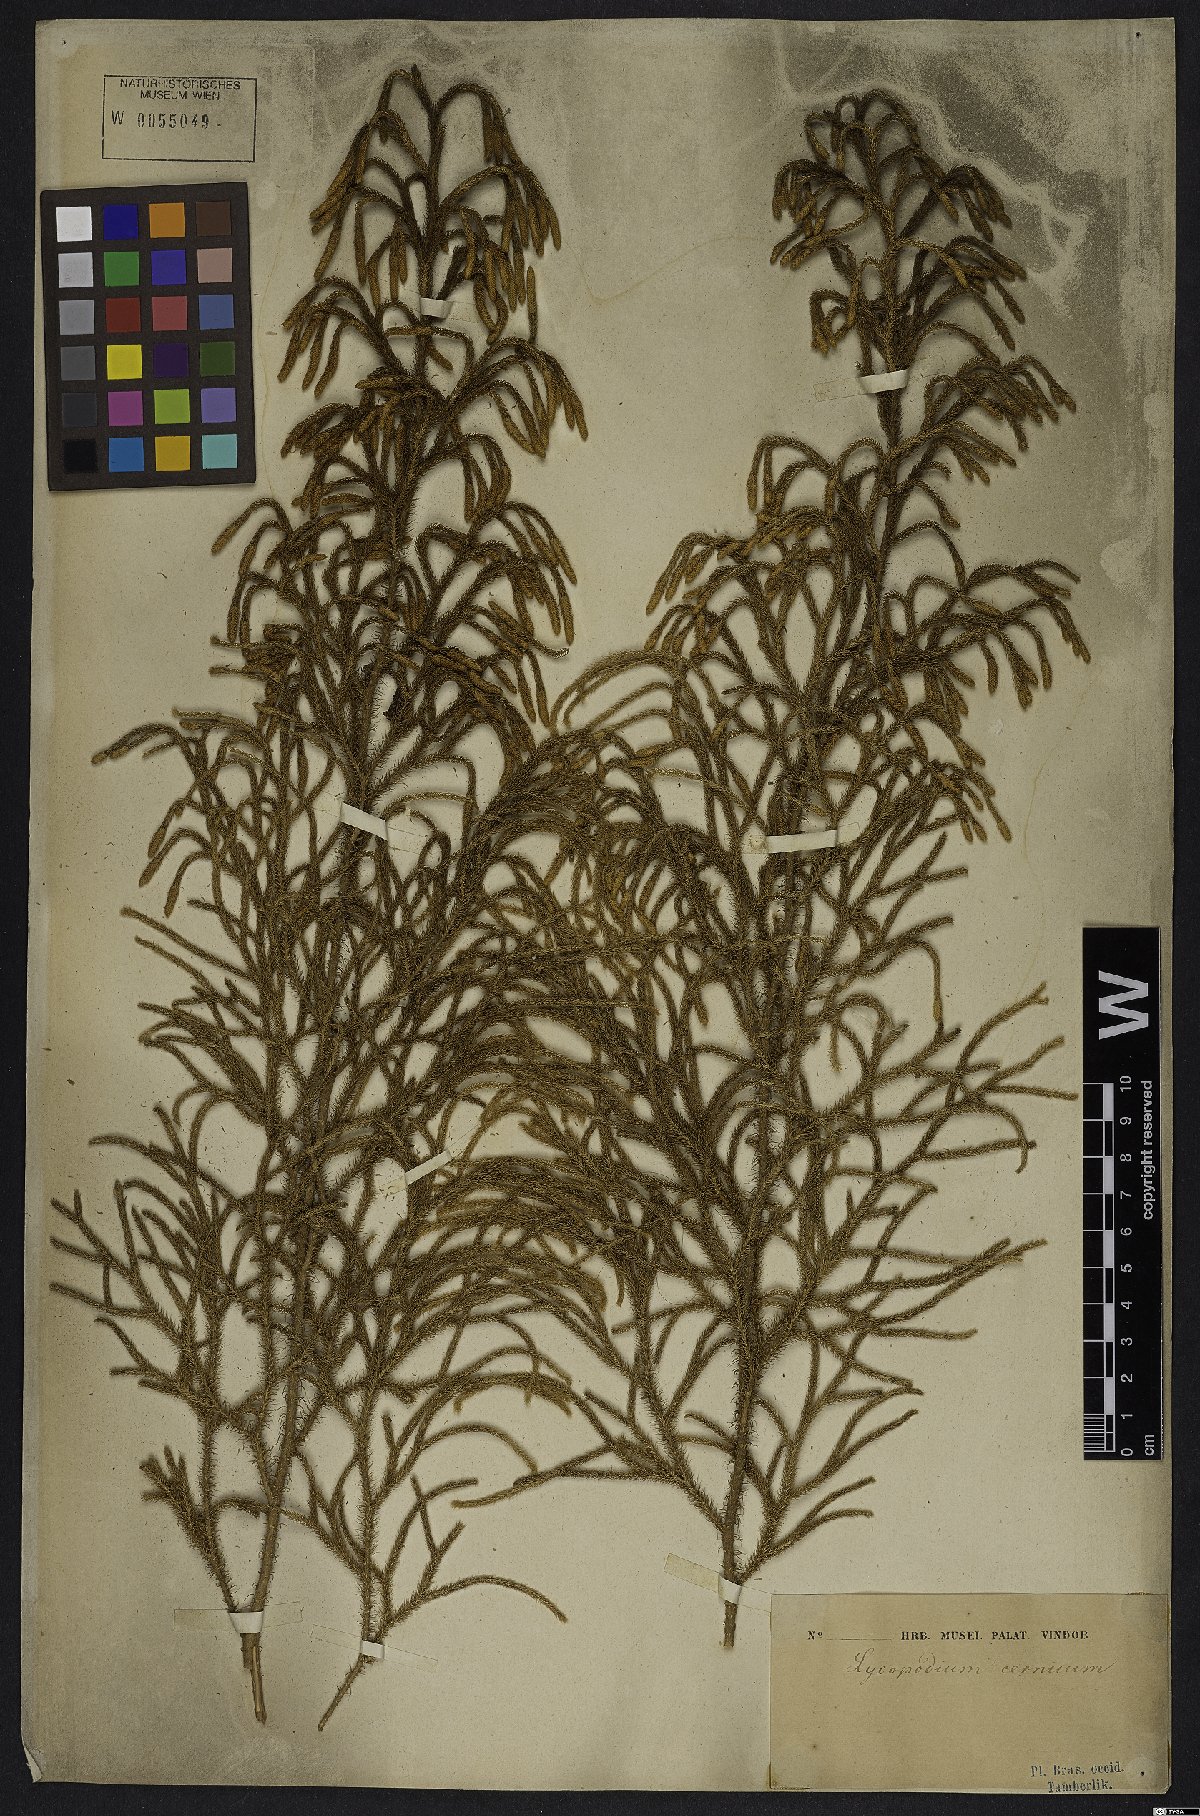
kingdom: Plantae
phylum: Tracheophyta
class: Lycopodiopsida
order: Lycopodiales
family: Lycopodiaceae
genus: Palhinhaea
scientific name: Palhinhaea cernua
